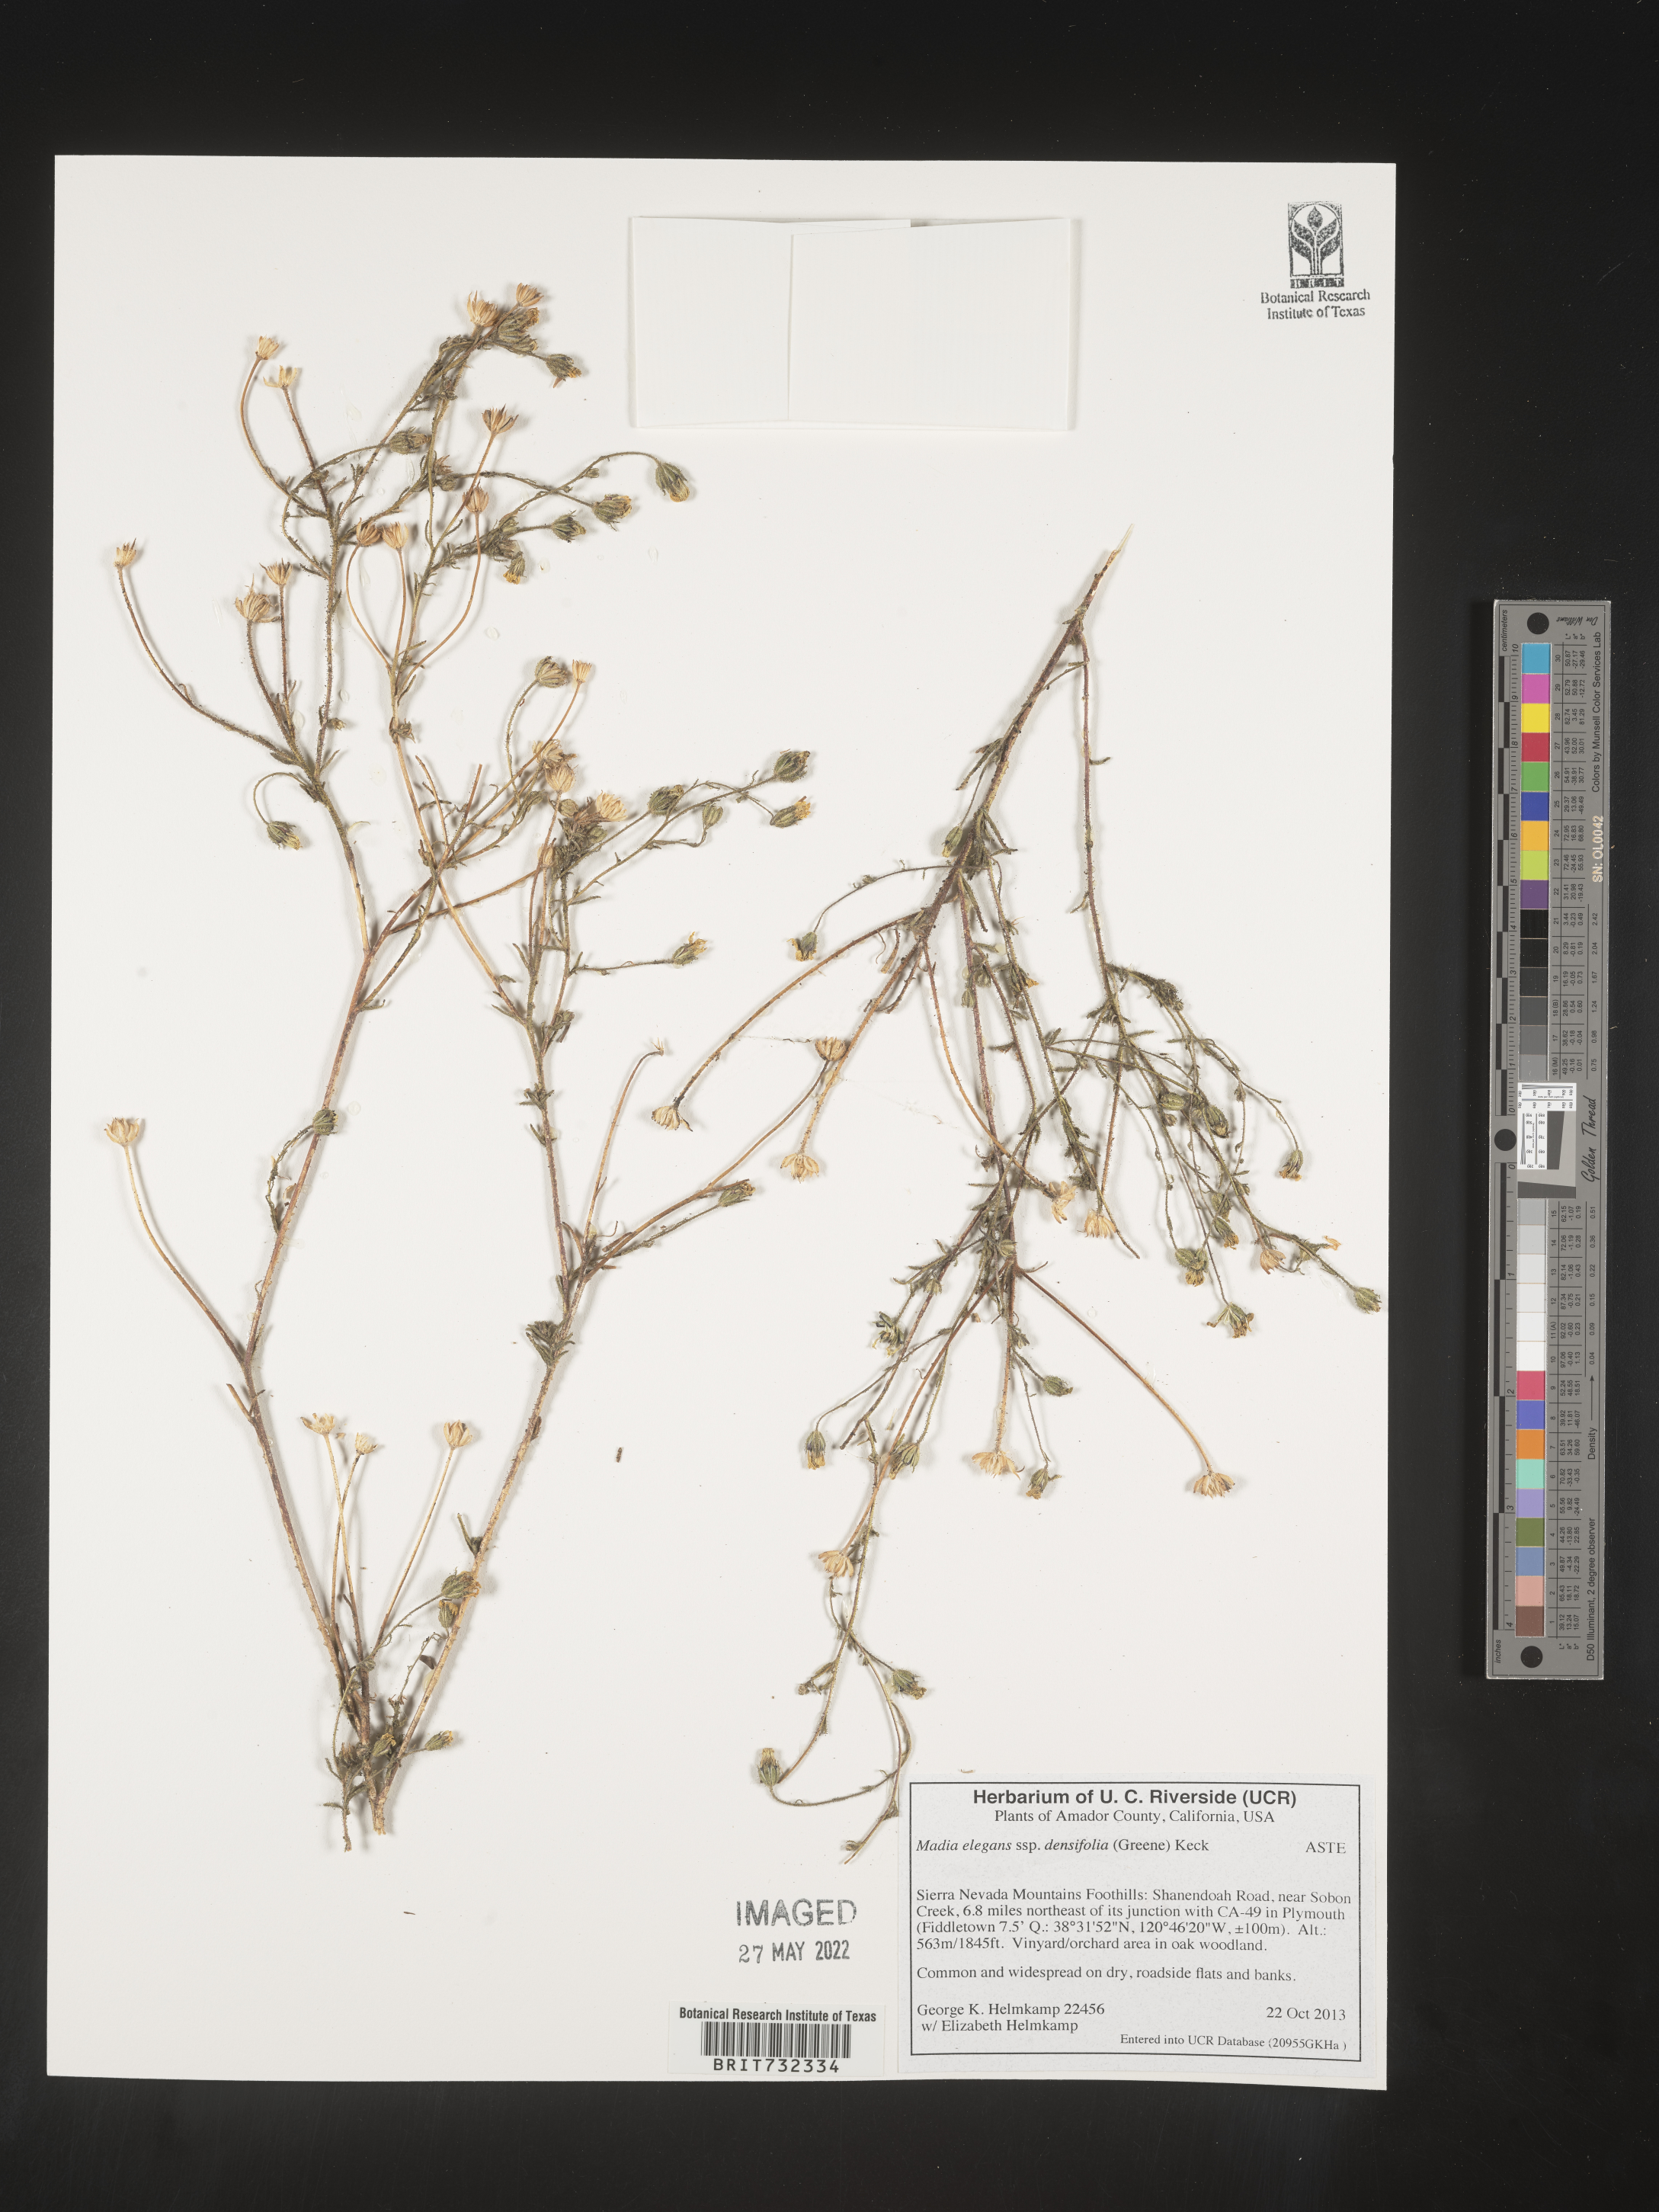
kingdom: Plantae
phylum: Tracheophyta
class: Magnoliopsida
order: Asterales
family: Asteraceae
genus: Madia
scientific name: Madia
